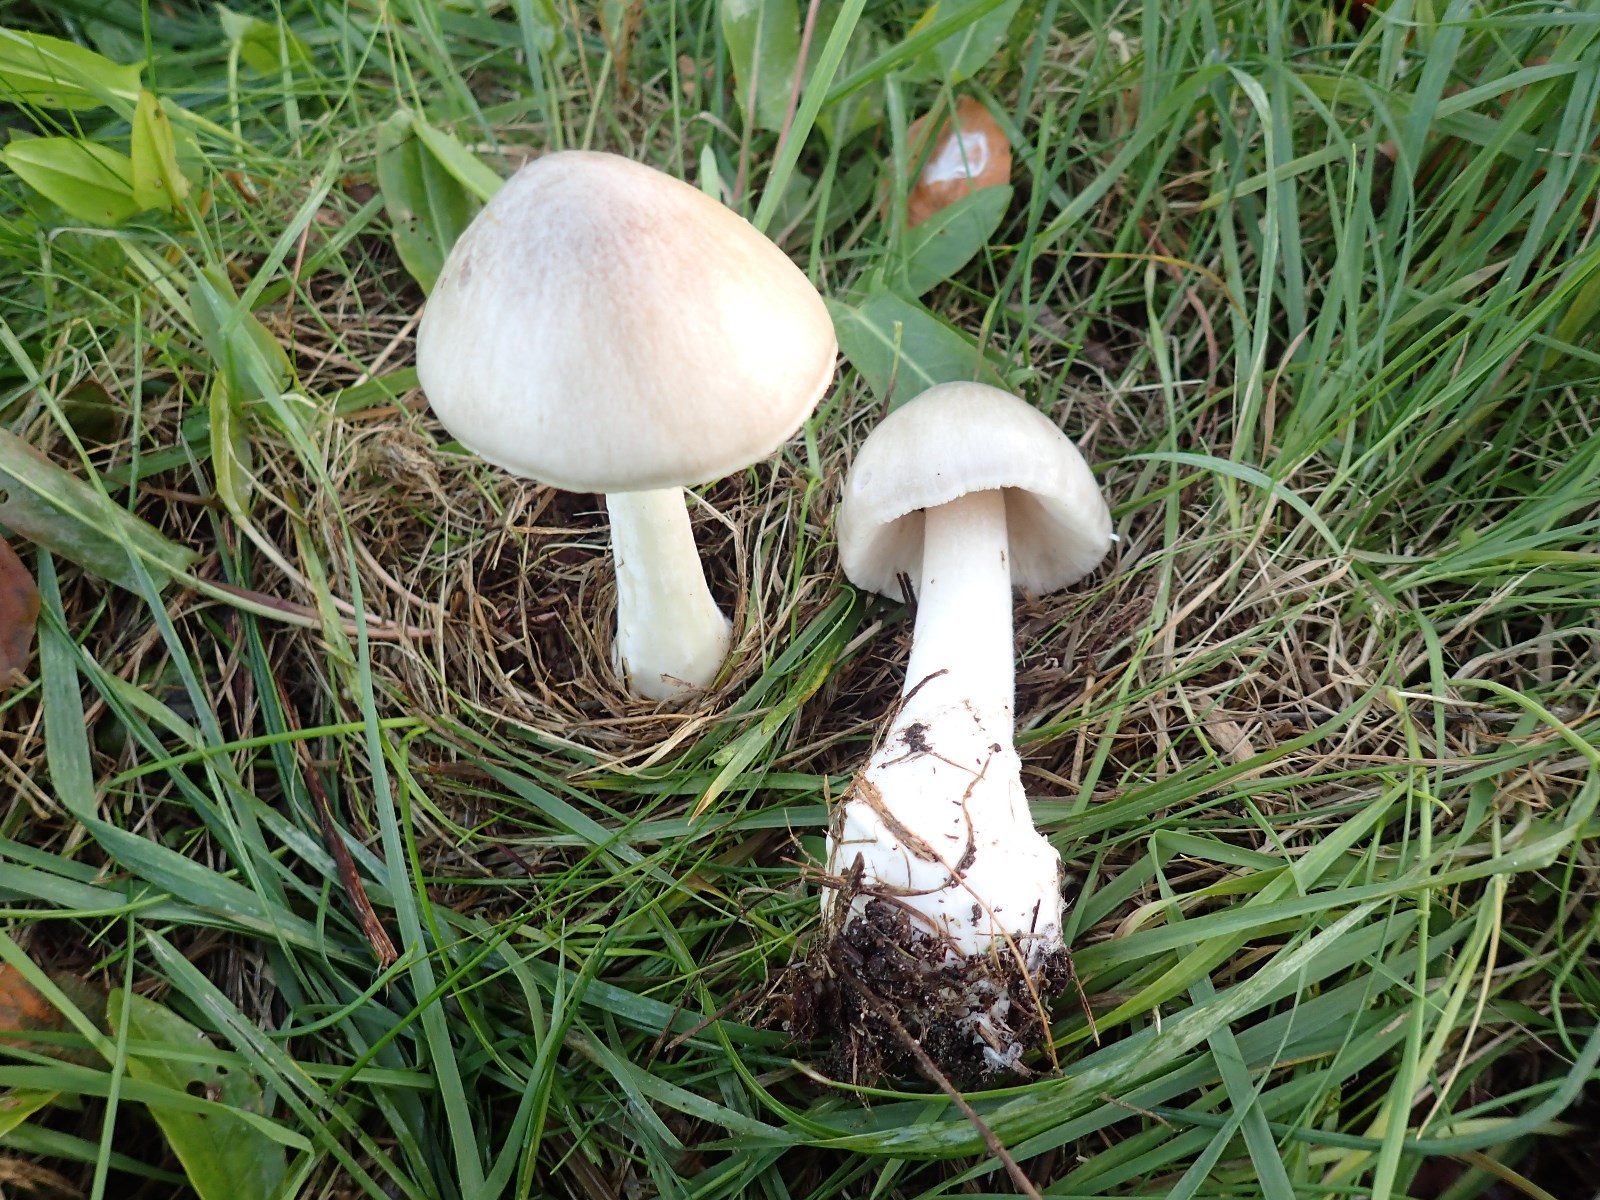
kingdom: Fungi
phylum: Basidiomycota
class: Agaricomycetes
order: Agaricales
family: Pluteaceae
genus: Volvopluteus
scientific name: Volvopluteus gloiocephalus
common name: høj posesvamp
